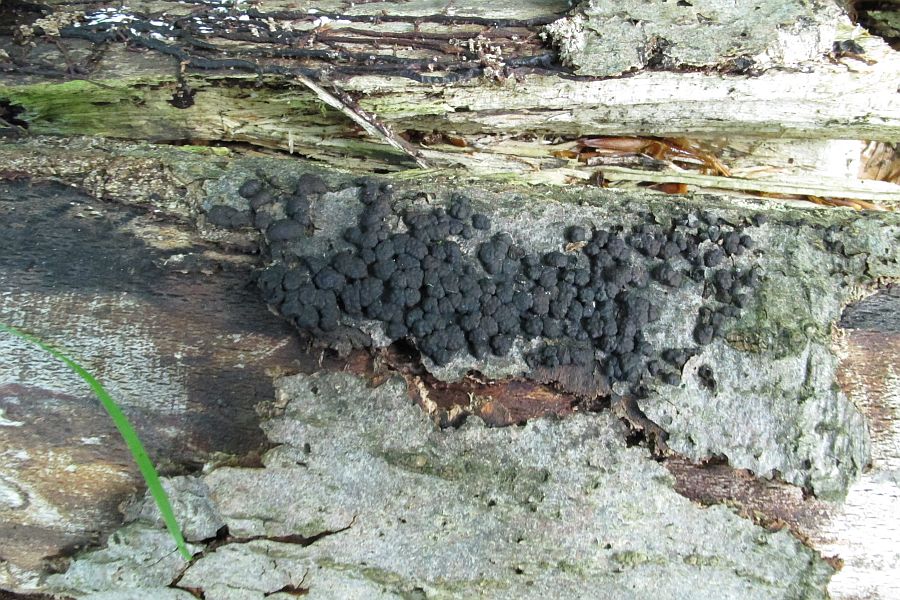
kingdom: Fungi
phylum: Ascomycota
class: Sordariomycetes
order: Xylariales
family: Hypoxylaceae
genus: Jackrogersella
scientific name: Jackrogersella cohaerens
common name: sammenflydende kulbær
